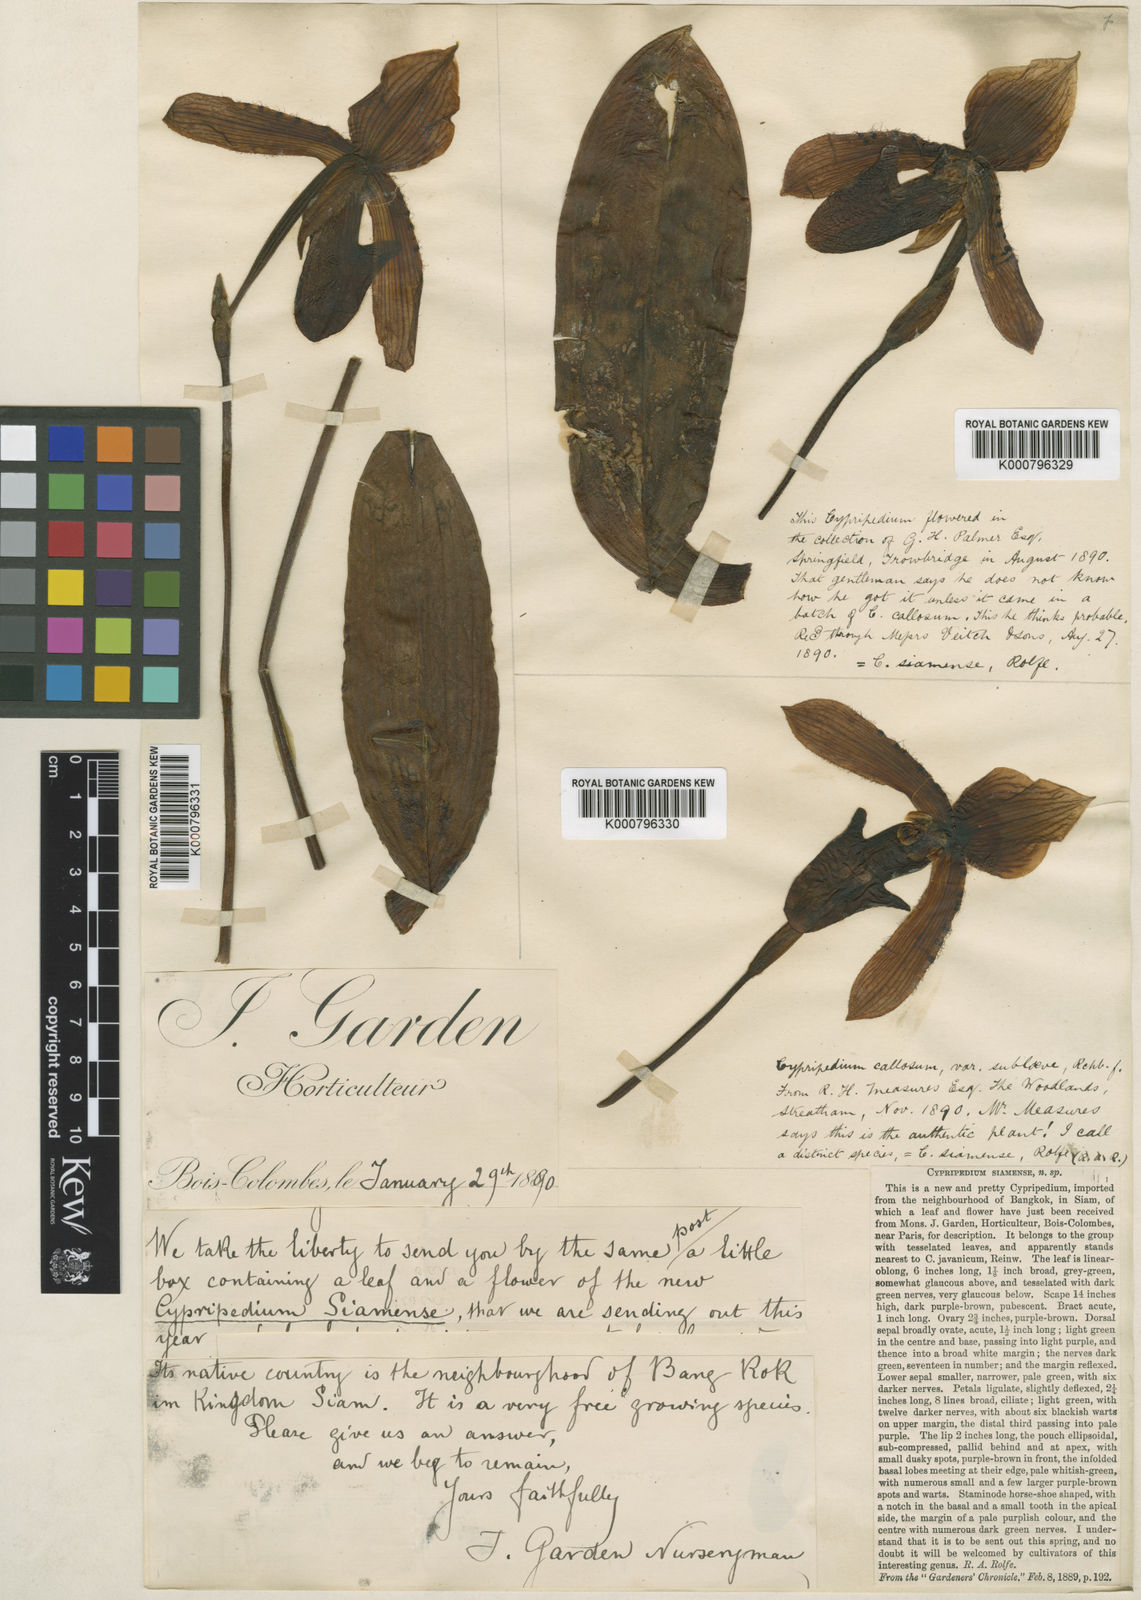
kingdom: Plantae
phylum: Tracheophyta
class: Liliopsida
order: Asparagales
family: Orchidaceae
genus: Paphiopedilum
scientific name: Paphiopedilum siamense
